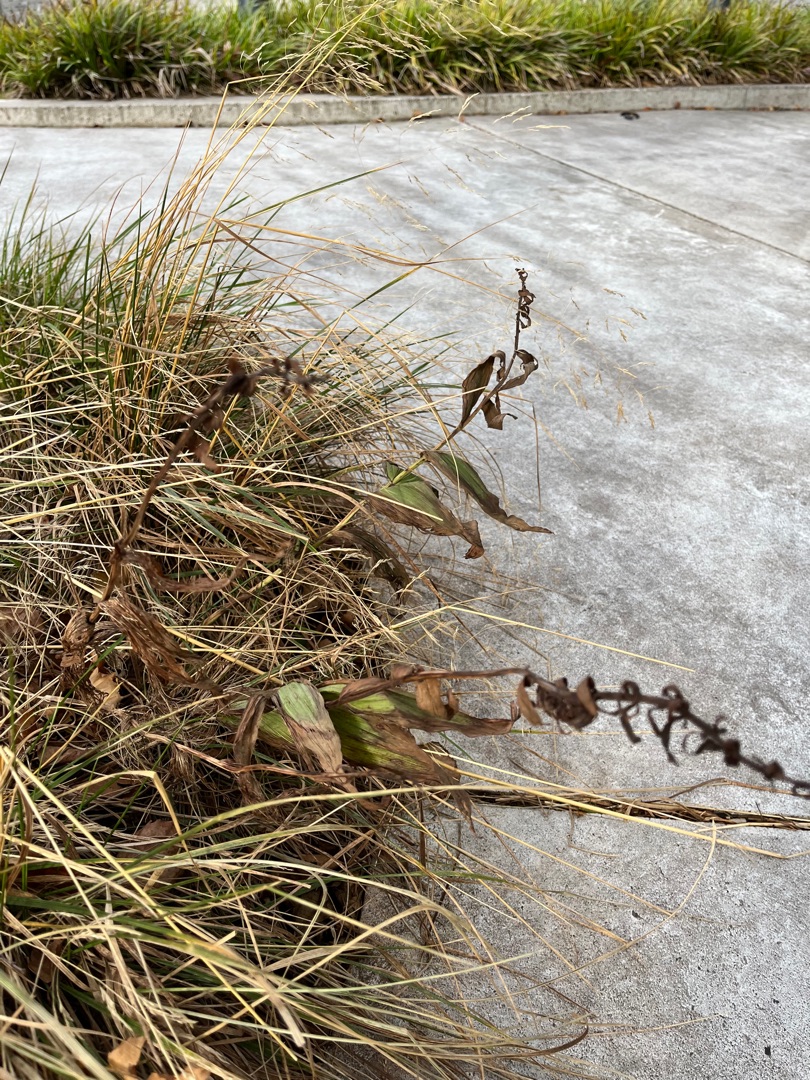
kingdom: Plantae
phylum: Tracheophyta
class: Liliopsida
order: Asparagales
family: Orchidaceae
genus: Epipactis
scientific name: Epipactis helleborine
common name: Skov-hullæbe
